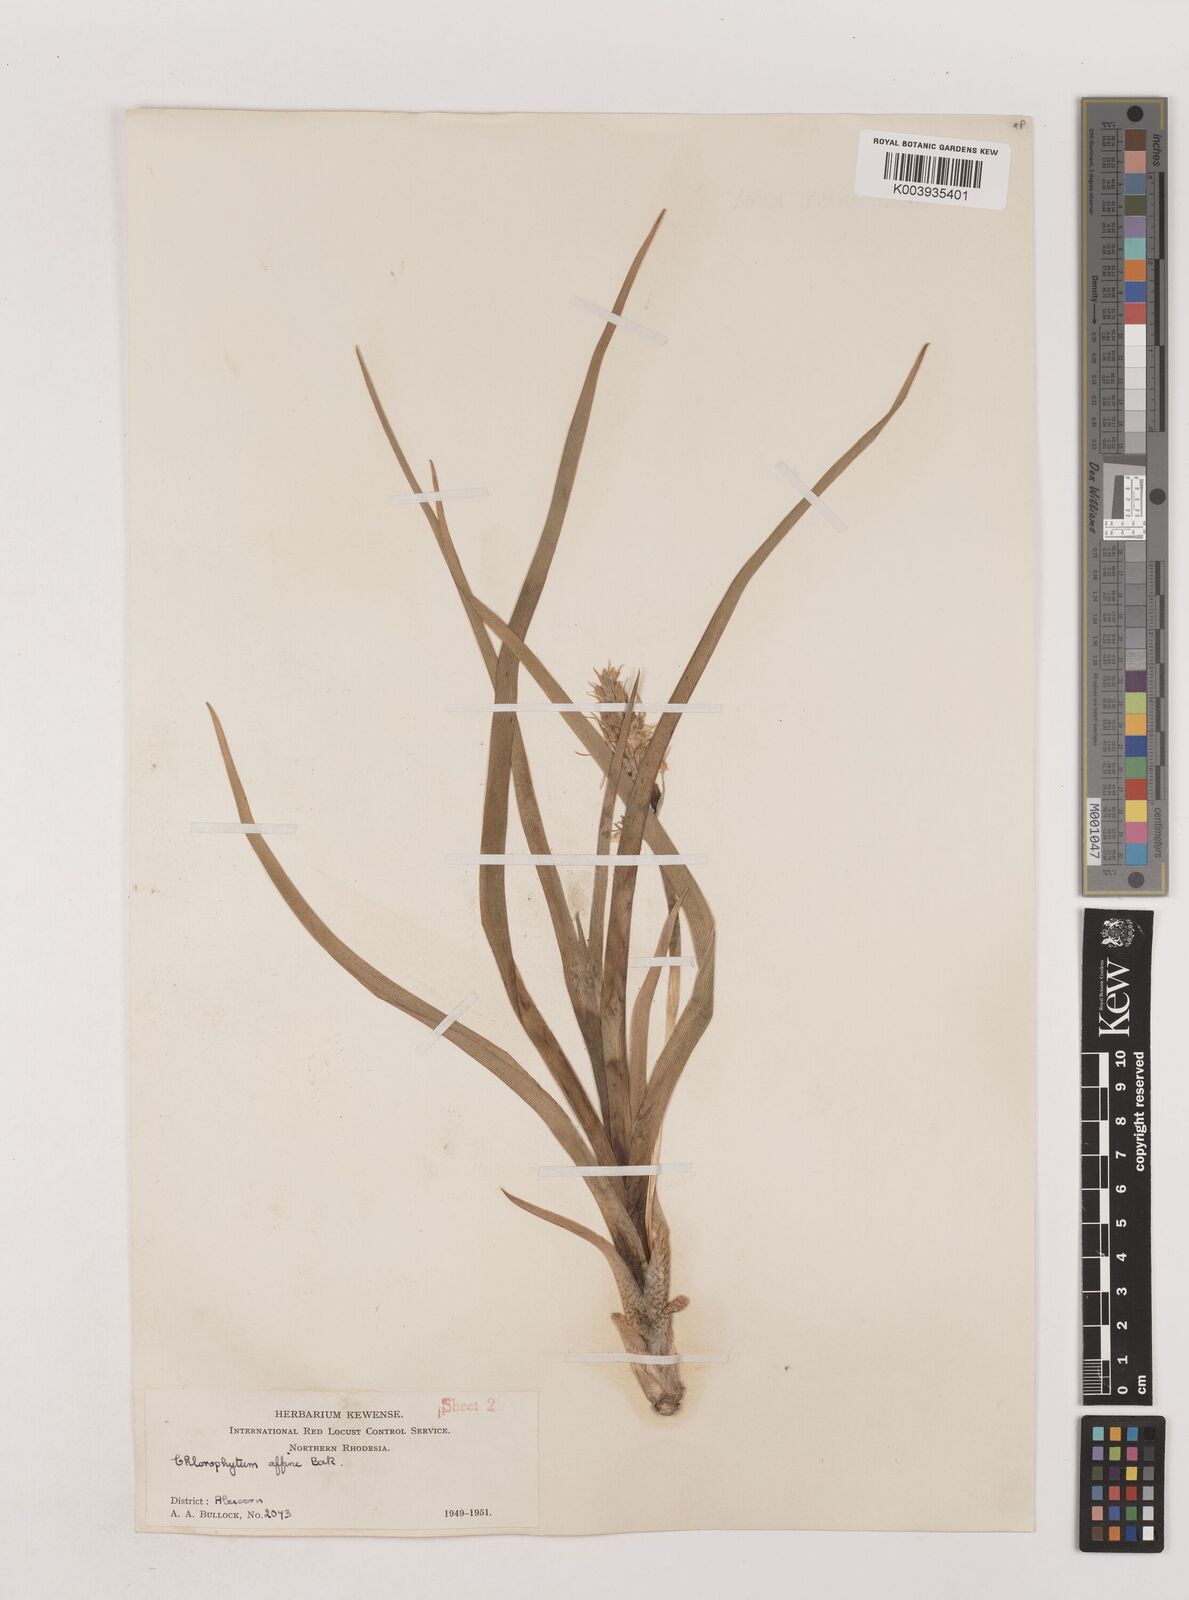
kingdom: Plantae
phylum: Tracheophyta
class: Liliopsida
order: Asparagales
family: Asparagaceae
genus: Chlorophytum
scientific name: Chlorophytum tordense
